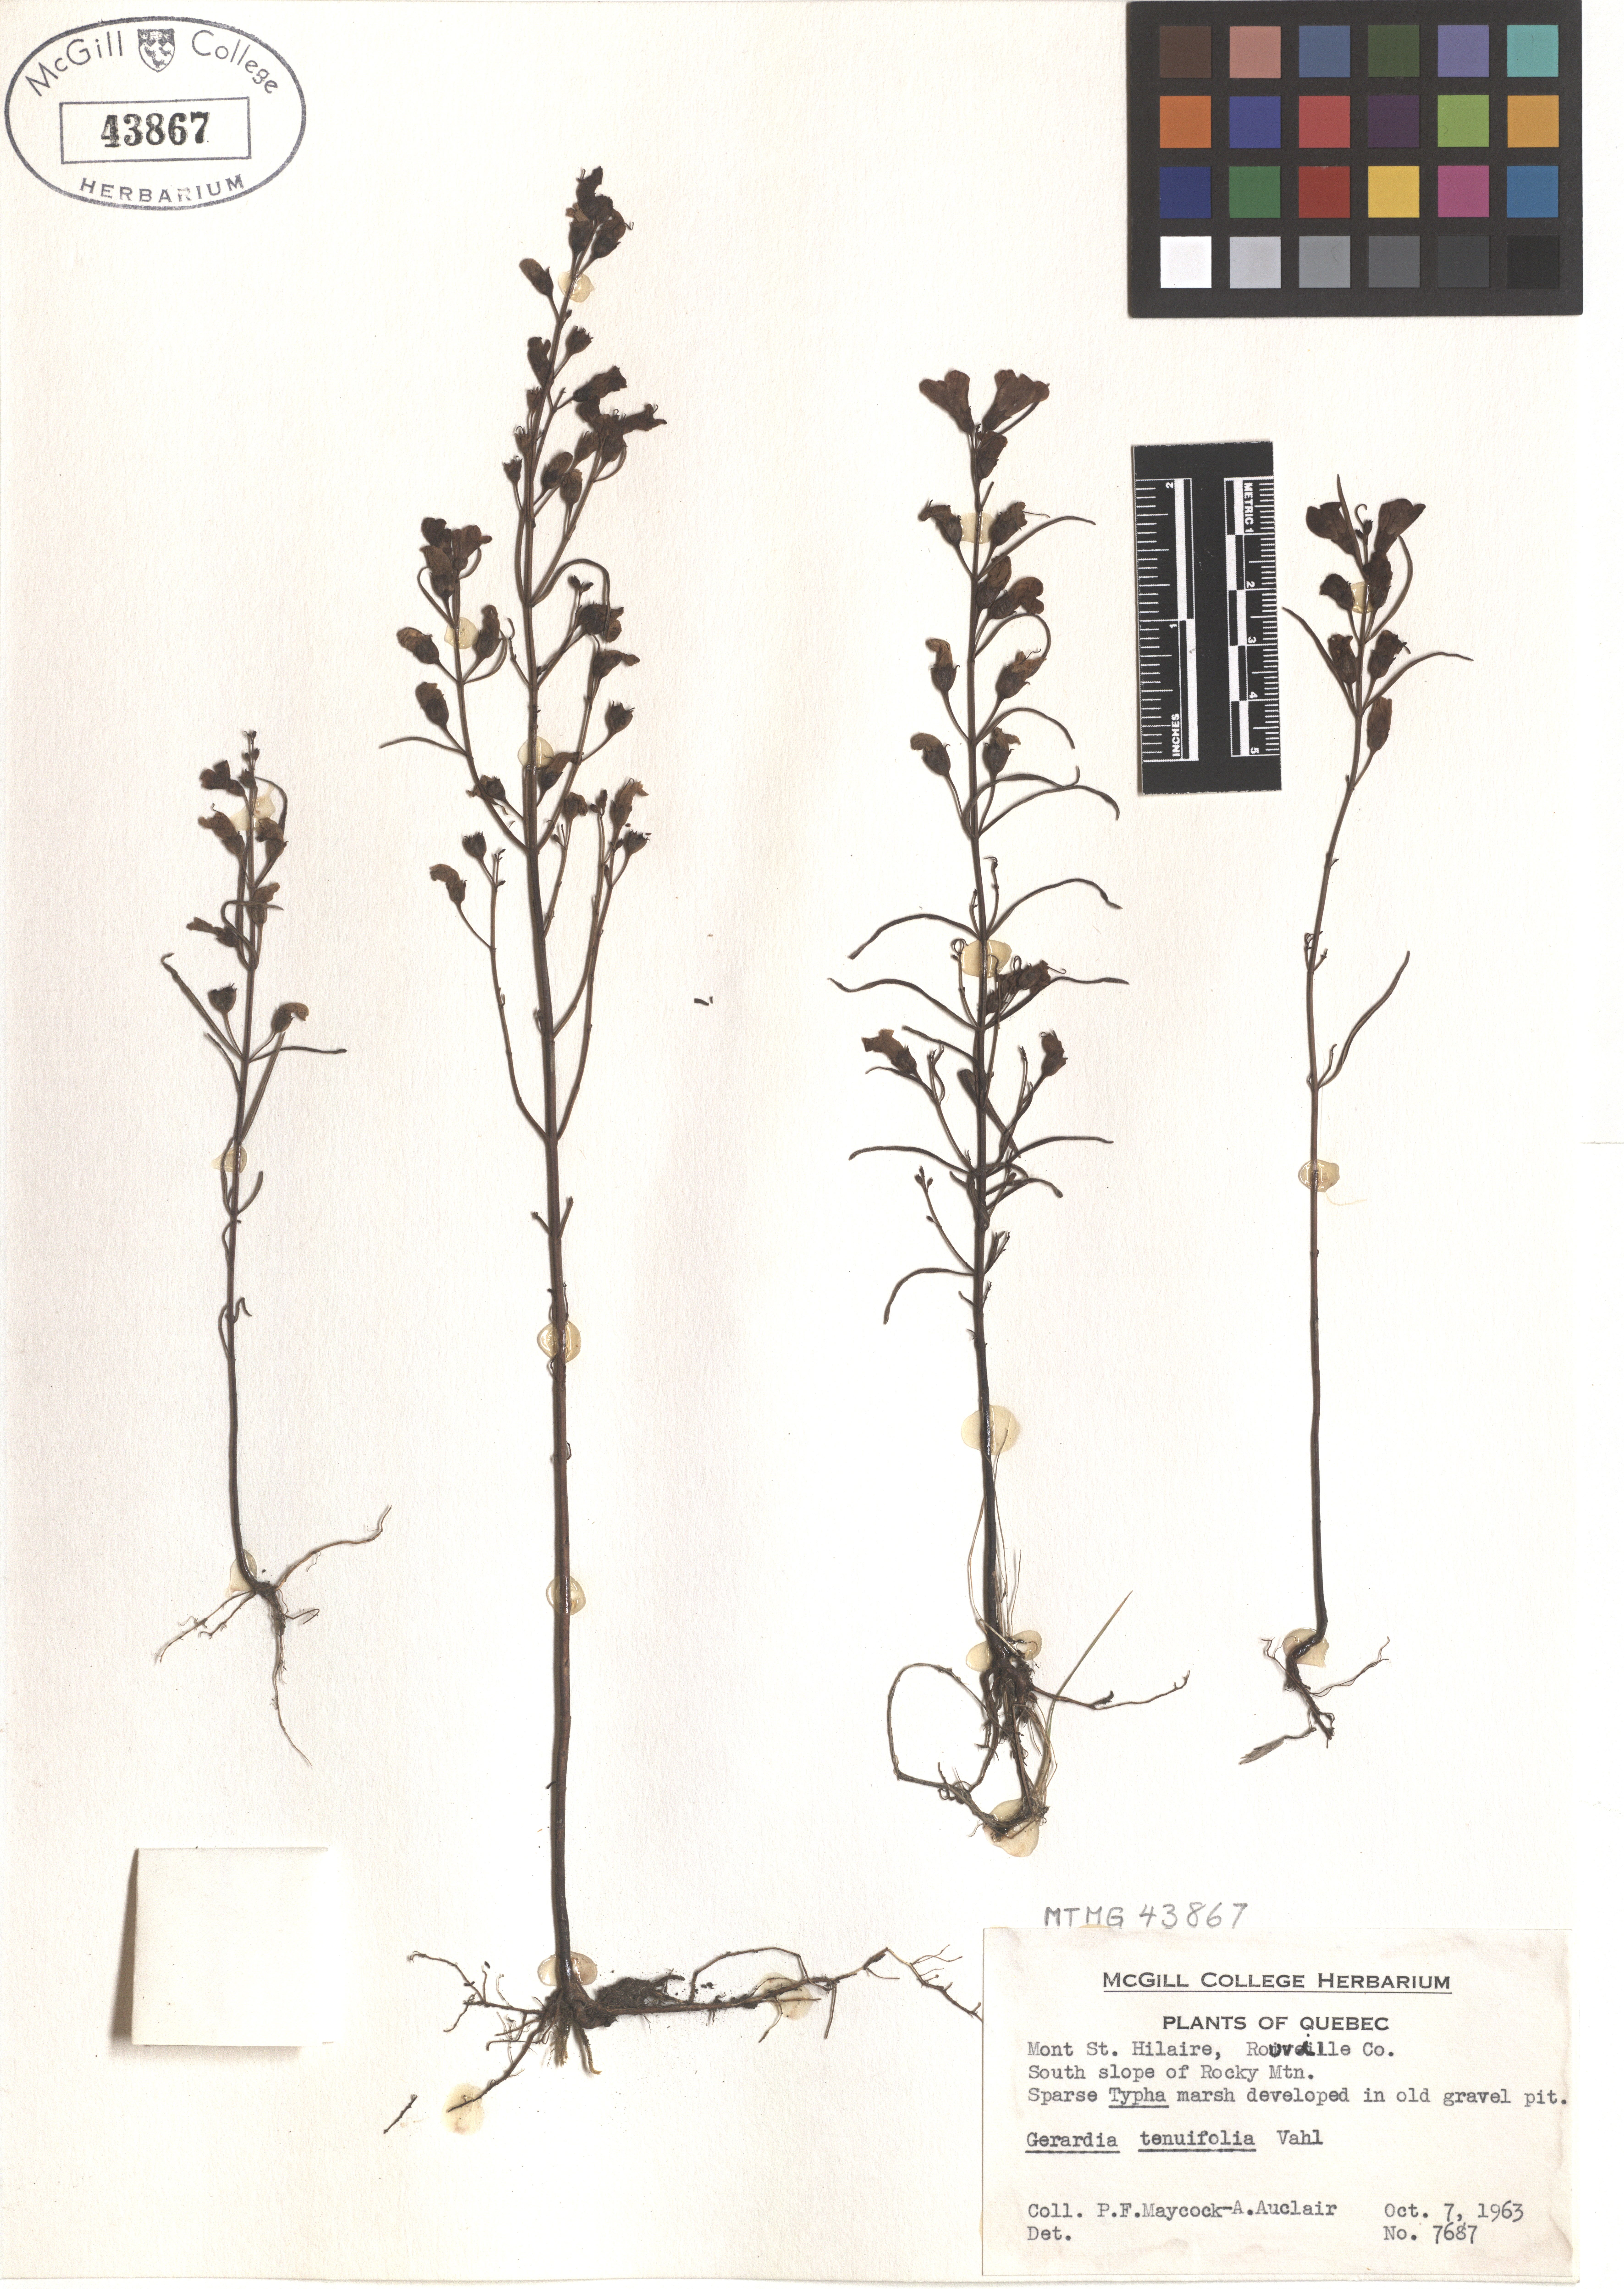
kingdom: Plantae
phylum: Tracheophyta
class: Magnoliopsida
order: Lamiales
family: Orobanchaceae
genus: Agalinis
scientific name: Agalinis tenuifolia
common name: Slender agalinis
